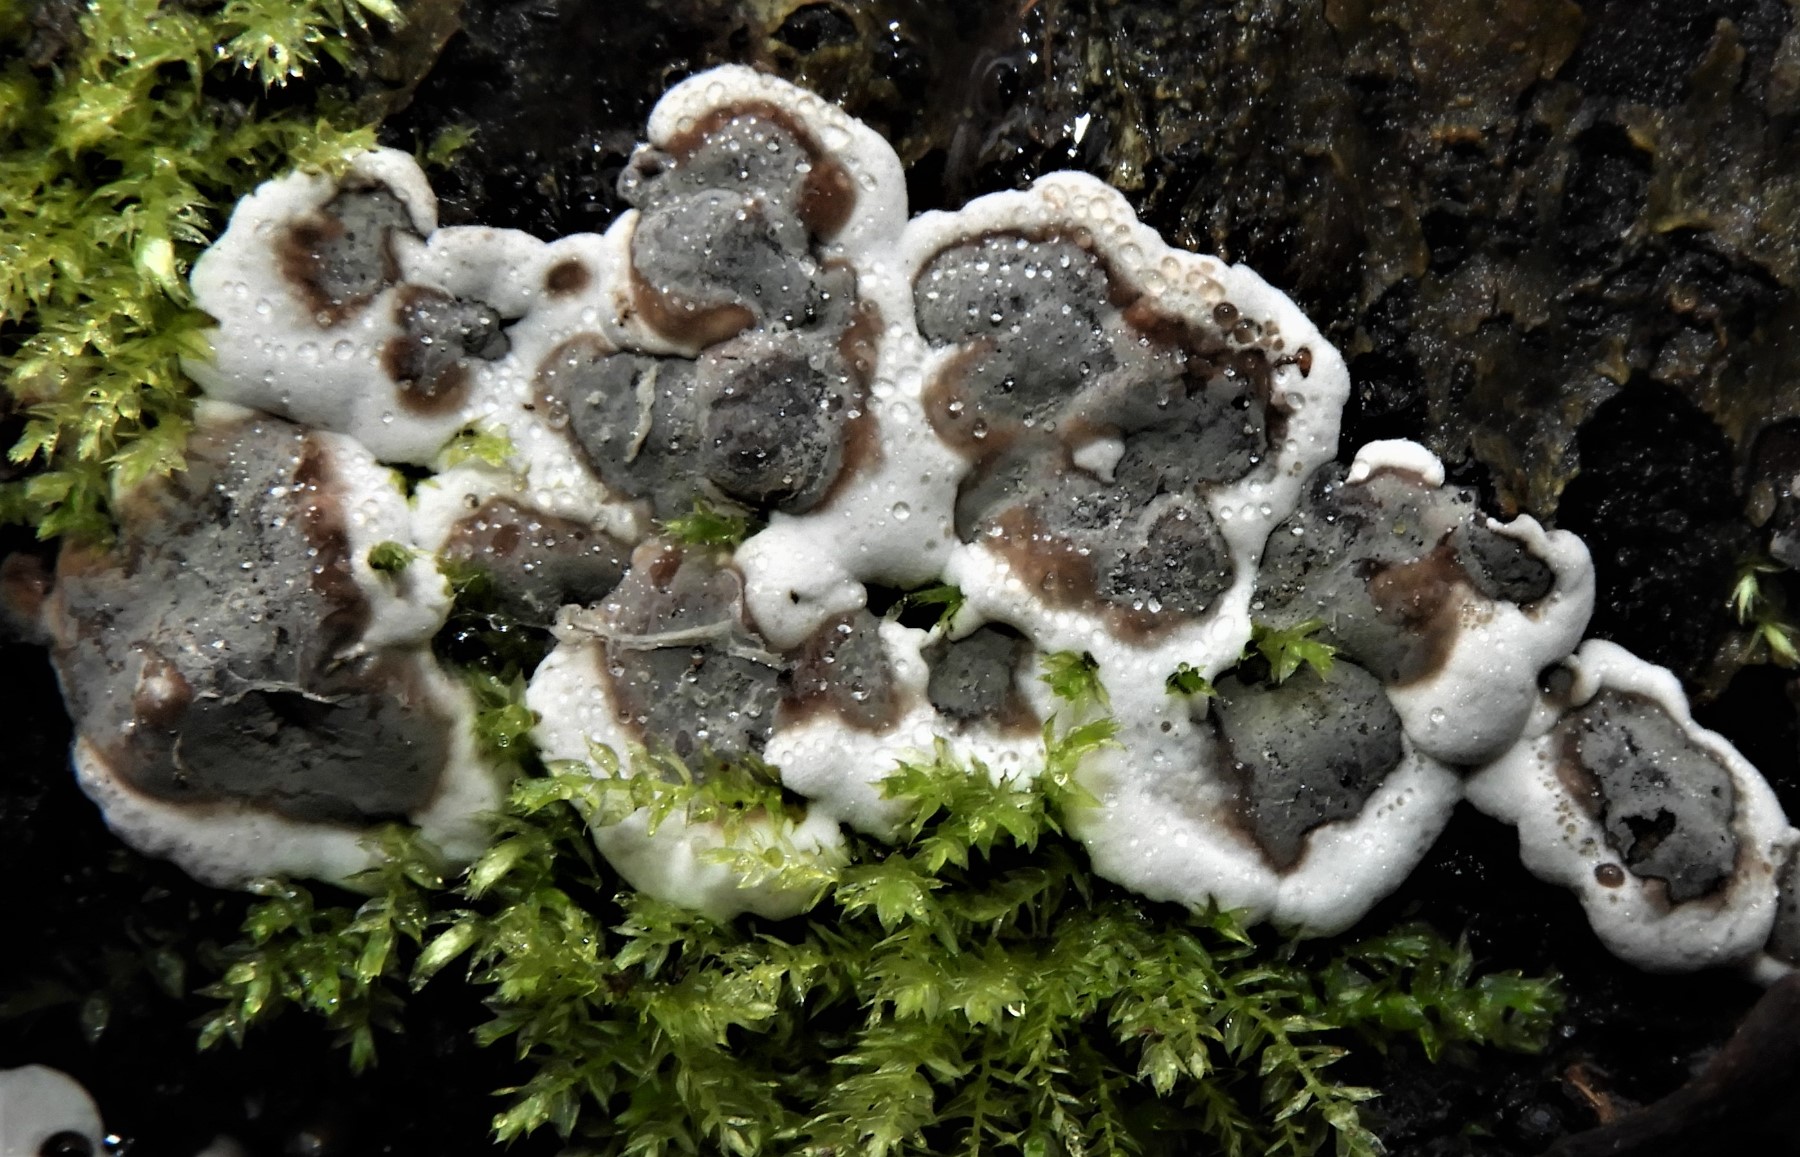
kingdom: Fungi
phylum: Basidiomycota
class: Agaricomycetes
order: Polyporales
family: Phanerochaetaceae
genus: Bjerkandera
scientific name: Bjerkandera adusta
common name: sveden sodporesvamp
